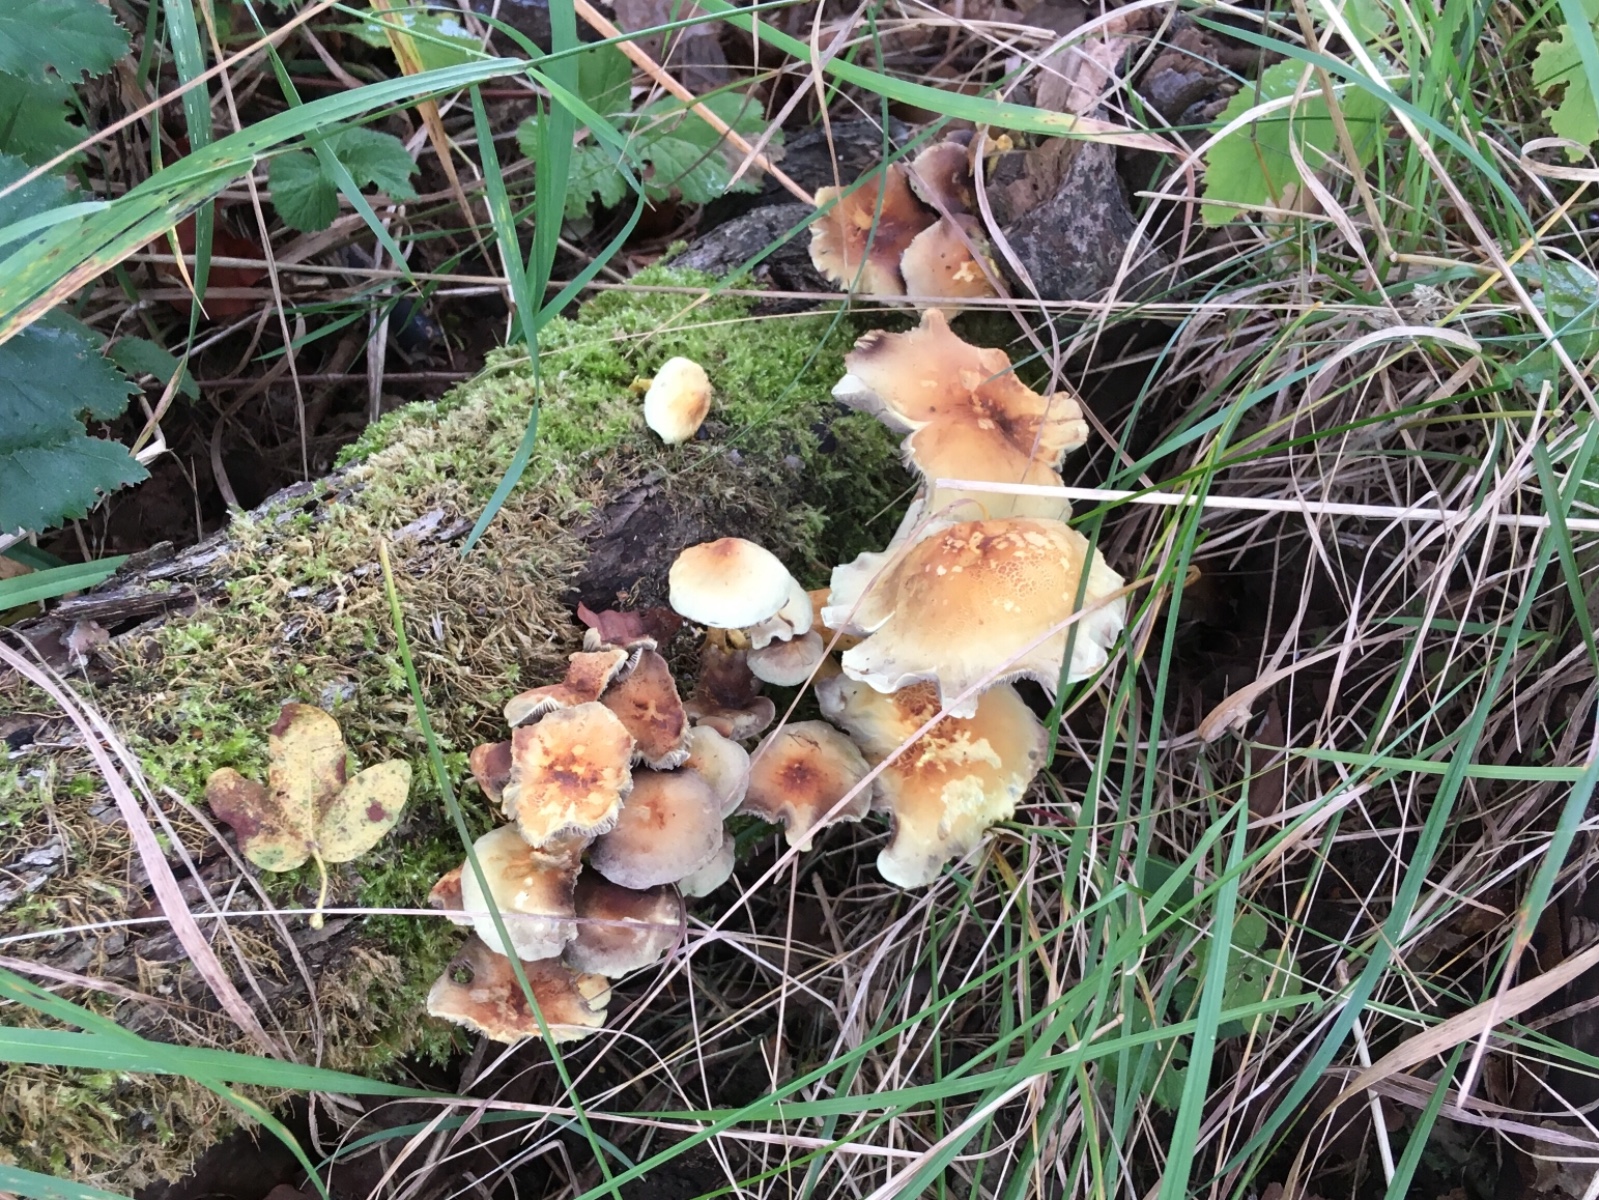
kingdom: Fungi
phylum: Basidiomycota
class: Agaricomycetes
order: Agaricales
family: Strophariaceae
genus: Hypholoma
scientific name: Hypholoma fasciculare
